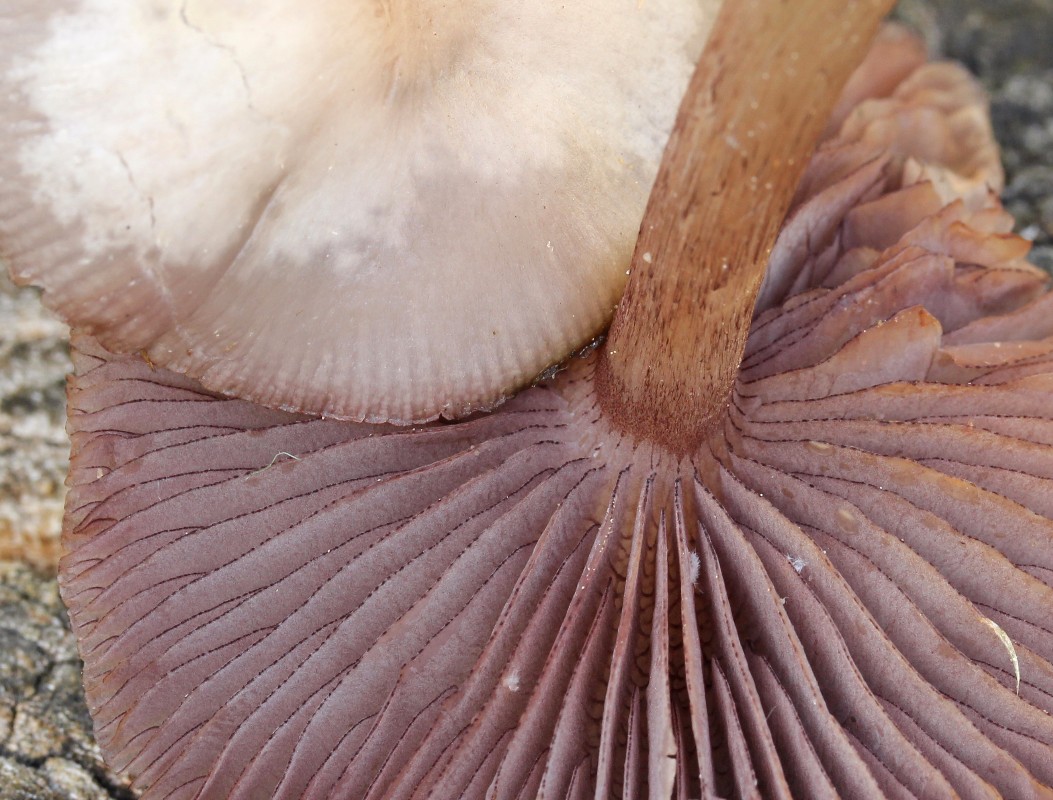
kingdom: Fungi
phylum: Basidiomycota
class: Agaricomycetes
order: Agaricales
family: Mycenaceae
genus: Mycena
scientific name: Mycena pelianthina
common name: mørkbladet huesvamp
